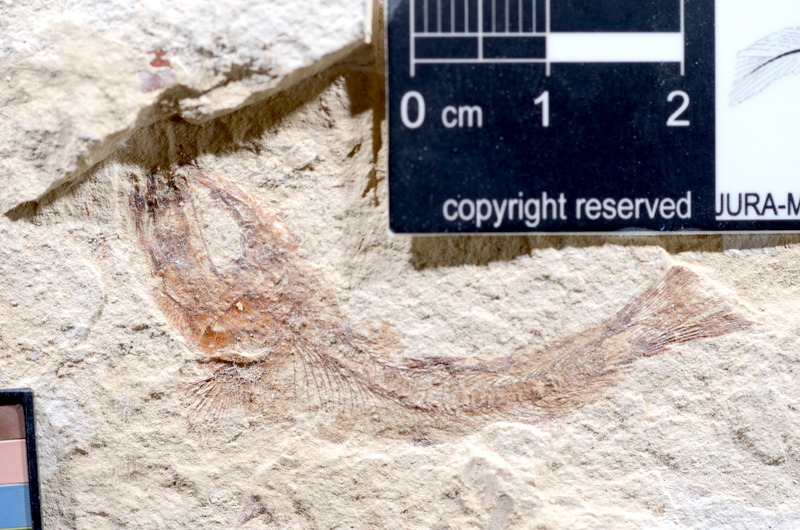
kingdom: Animalia
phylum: Chordata
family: Ascalaboidae
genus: Tharsis
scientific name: Tharsis dubius
